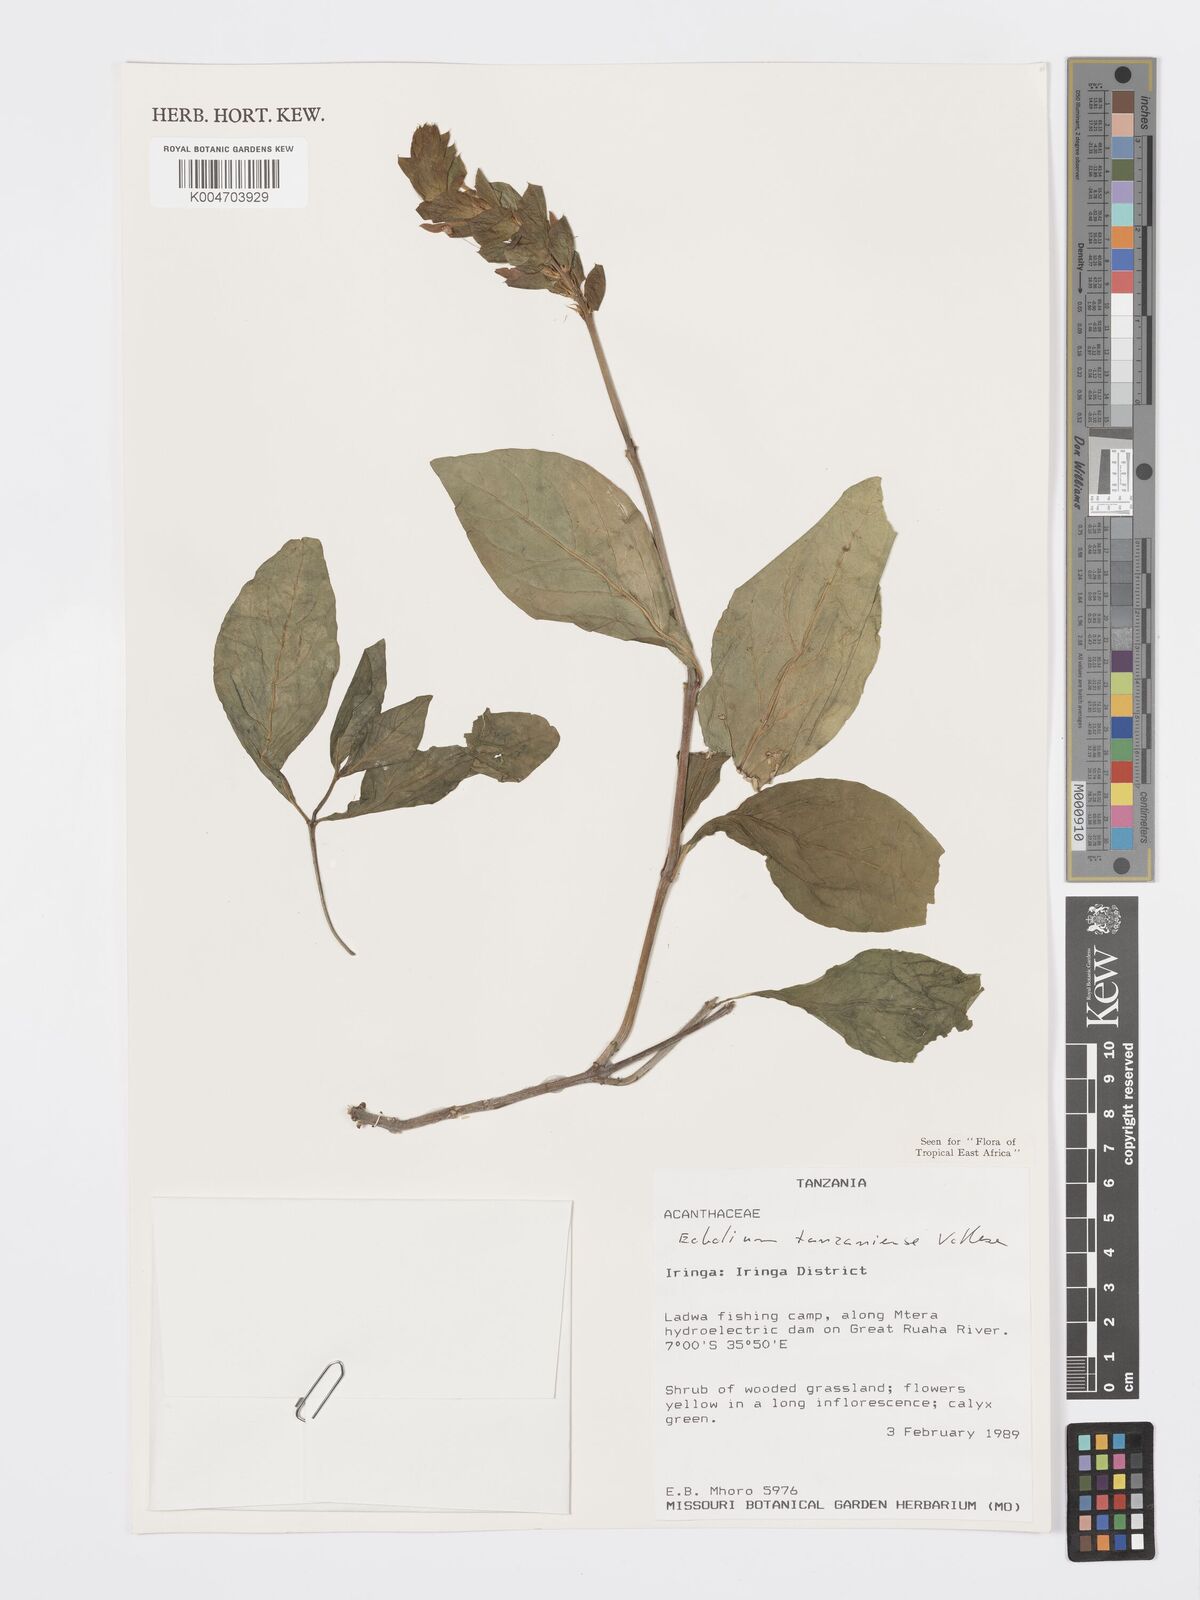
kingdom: Plantae
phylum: Tracheophyta
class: Magnoliopsida
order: Lamiales
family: Acanthaceae
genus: Ecbolium
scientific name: Ecbolium tanzaniense
